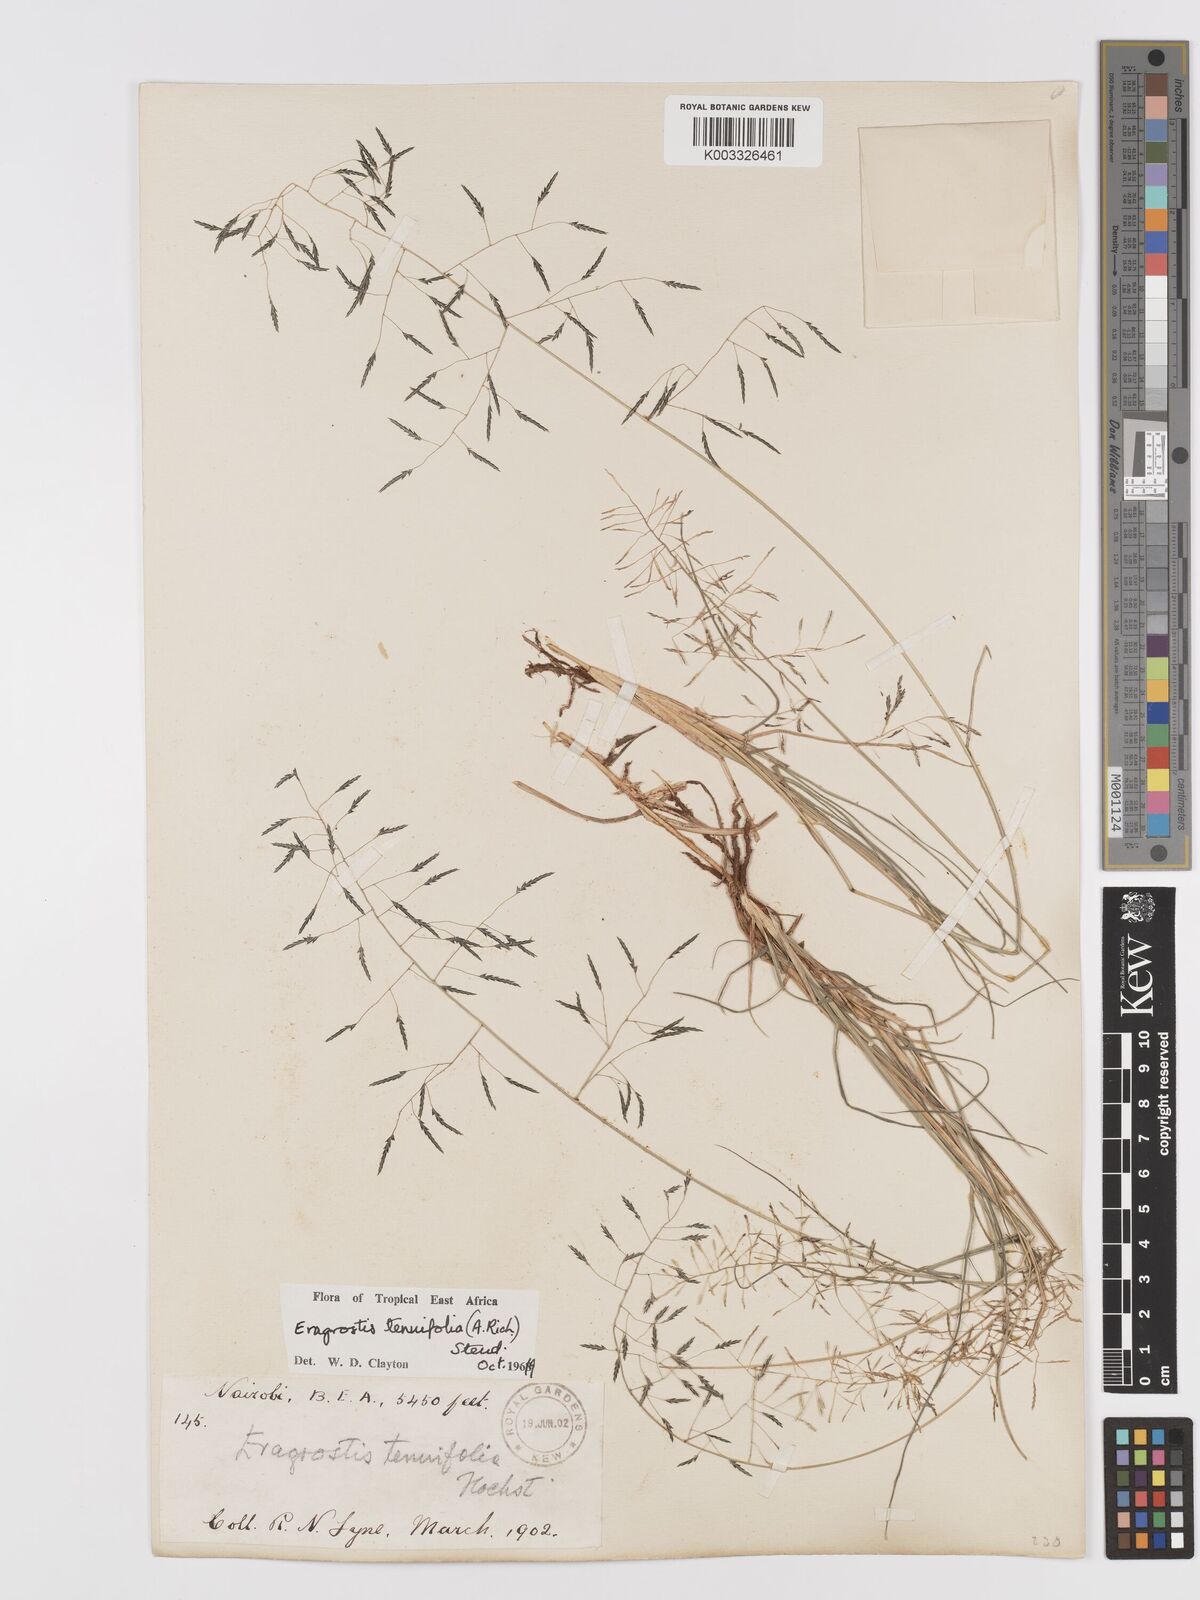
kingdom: Plantae
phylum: Tracheophyta
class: Liliopsida
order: Poales
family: Poaceae
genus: Eragrostis
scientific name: Eragrostis tenuifolia
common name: Elastic grass
